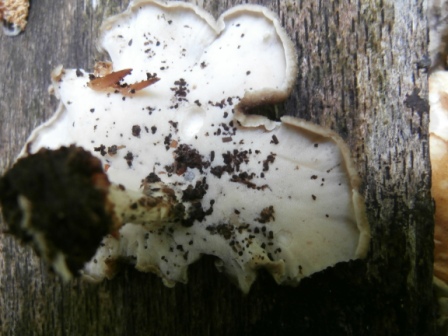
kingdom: Fungi
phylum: Basidiomycota
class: Agaricomycetes
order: Polyporales
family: Polyporaceae
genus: Lentinus
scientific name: Lentinus substrictus
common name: forårs-stilkporesvamp
